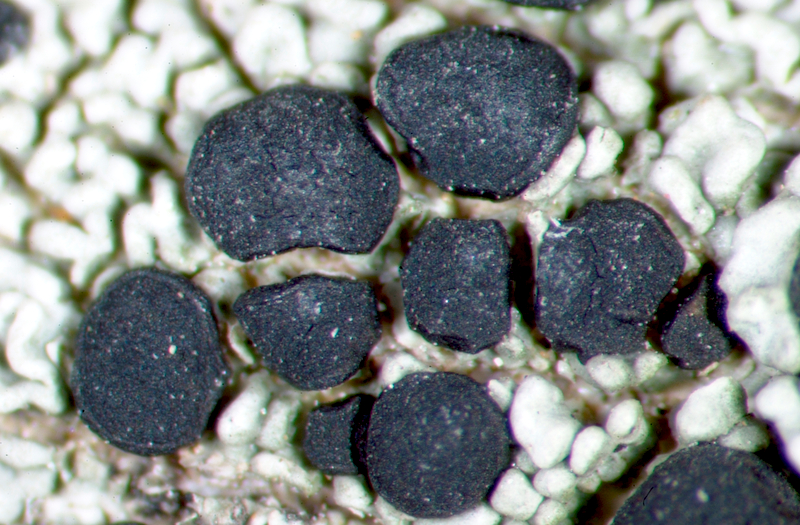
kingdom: Fungi
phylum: Ascomycota
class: Arthoniomycetes
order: Arthoniales
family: Chrysotrichaceae
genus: Chrysothrix
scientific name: Chrysothrix candelaris
